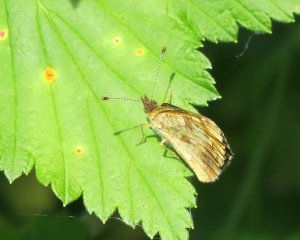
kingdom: Animalia
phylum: Arthropoda
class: Insecta
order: Lepidoptera
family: Nymphalidae
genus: Phyciodes
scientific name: Phyciodes tharos
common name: Northern Crescent
